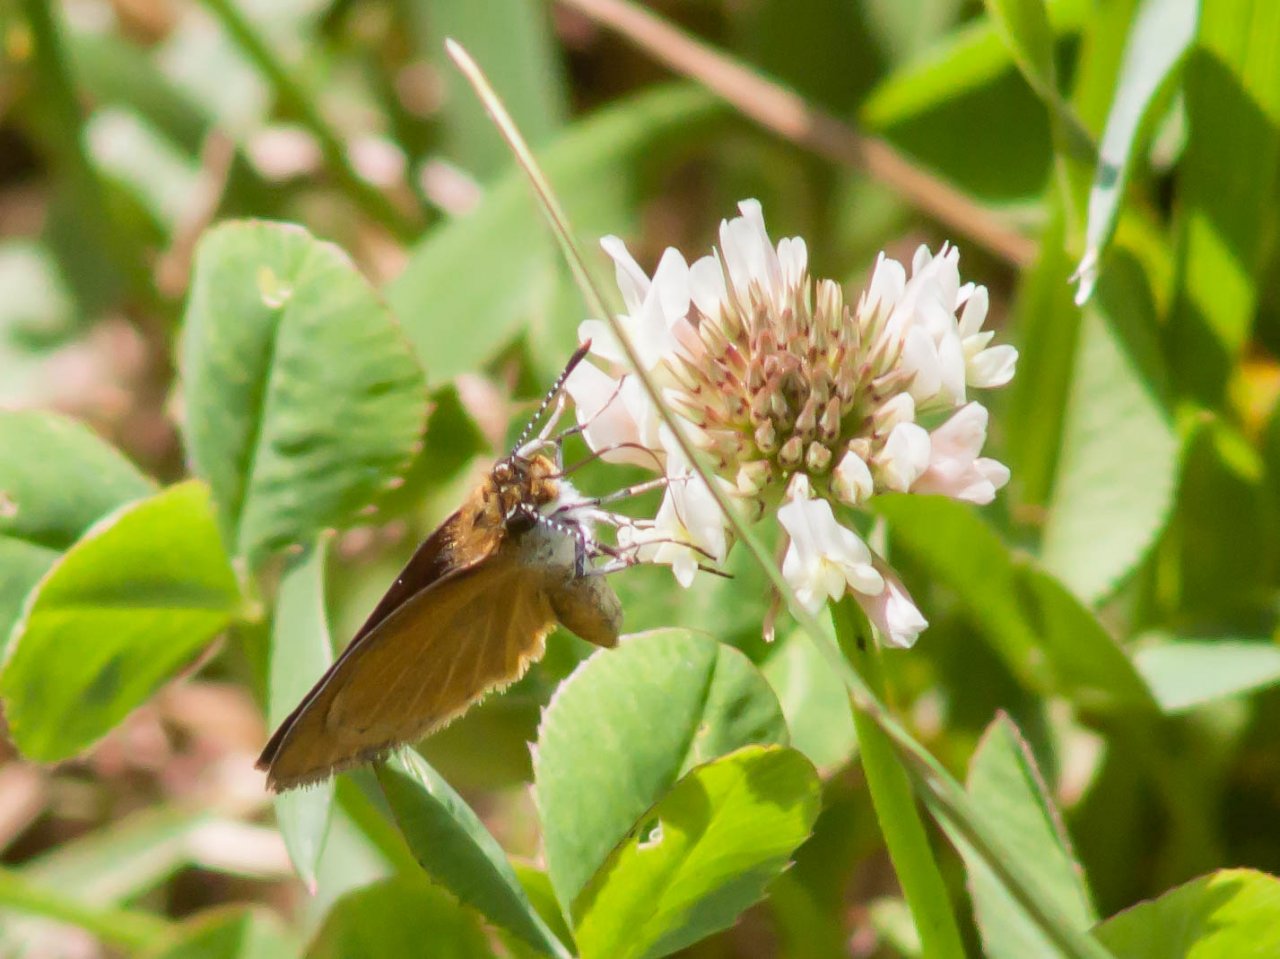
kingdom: Animalia
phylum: Arthropoda
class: Insecta
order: Lepidoptera
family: Hesperiidae
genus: Ancyloxypha
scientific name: Ancyloxypha numitor
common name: Least Skipper
